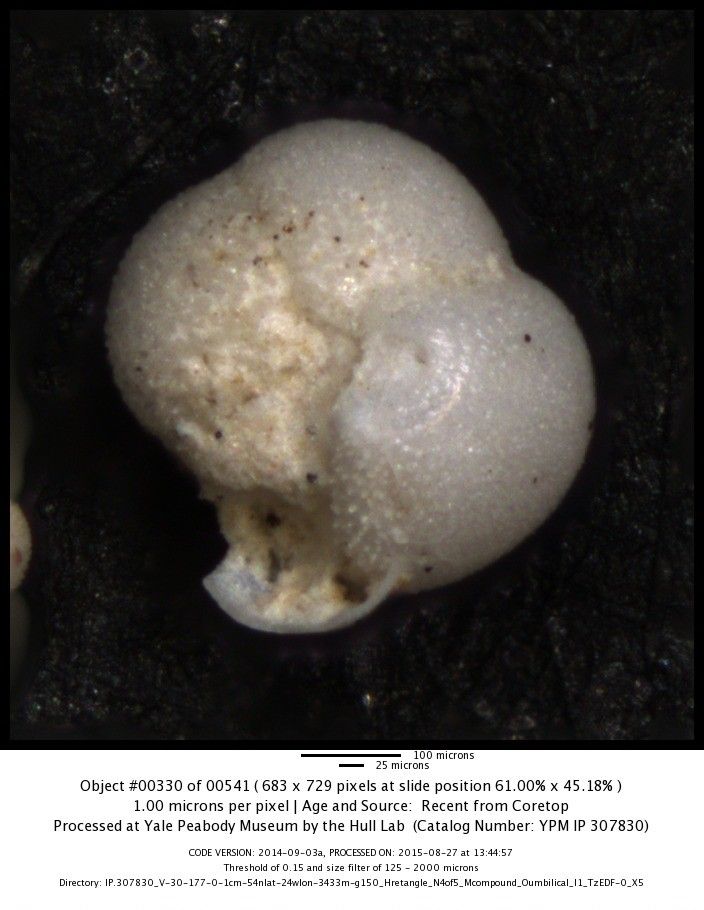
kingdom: Chromista
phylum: Foraminifera
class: Globothalamea
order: Rotaliida
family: Globorotaliidae
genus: Globoconella
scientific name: Globoconella inflata
